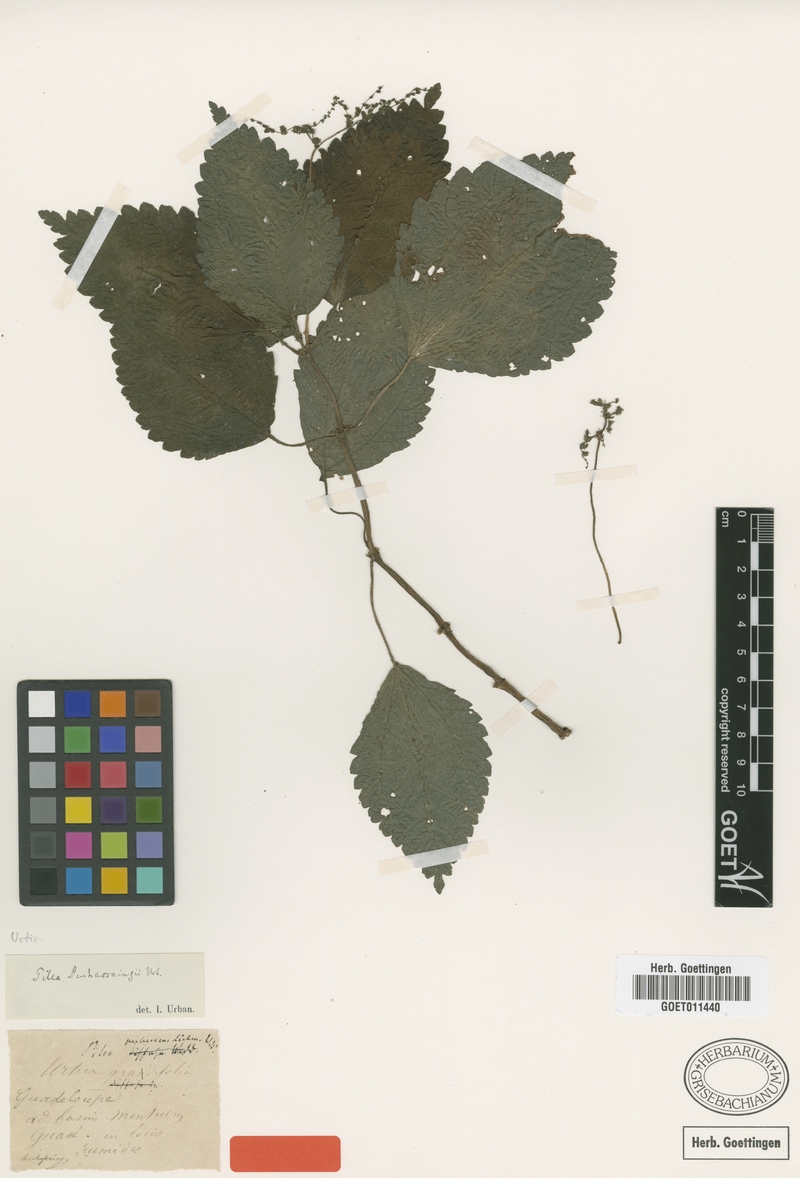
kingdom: Plantae
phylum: Tracheophyta
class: Magnoliopsida
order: Rosales
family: Urticaceae
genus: Pilea
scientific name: Pilea rivoriae
